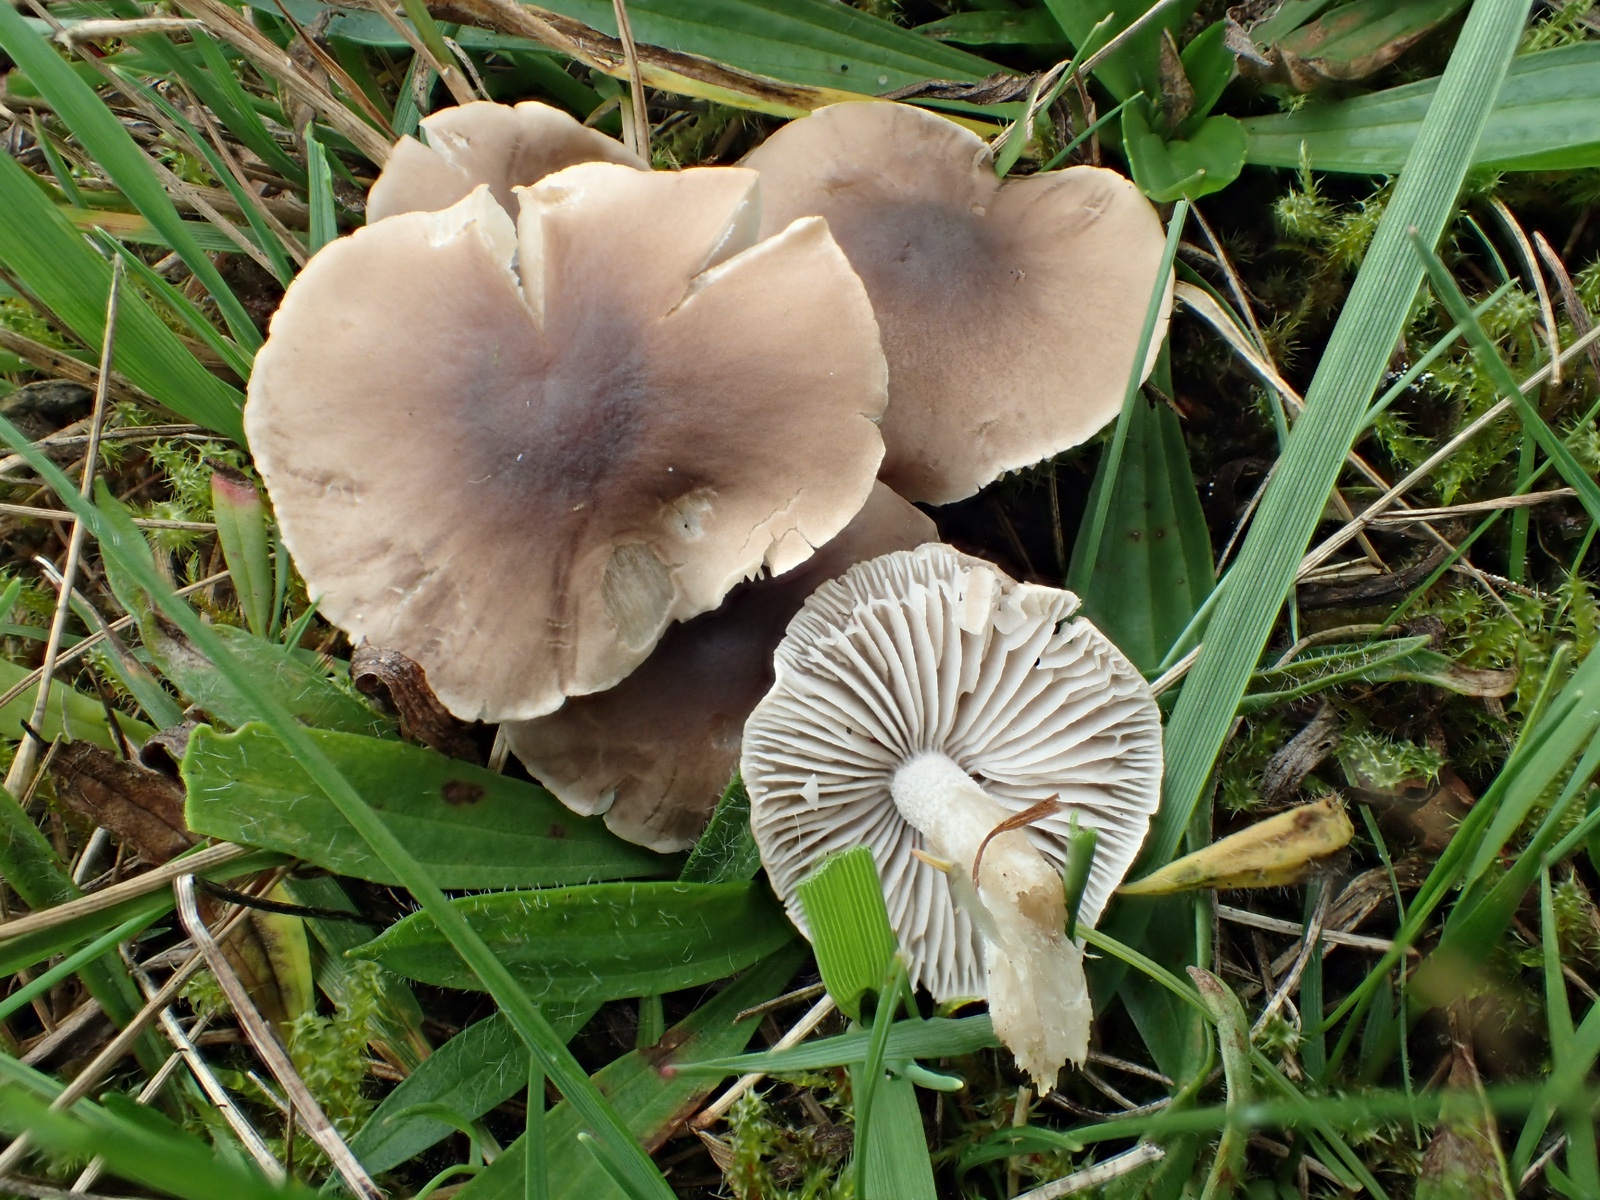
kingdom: Fungi
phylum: Basidiomycota
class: Agaricomycetes
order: Agaricales
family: Tricholomataceae
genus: Dermoloma
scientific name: Dermoloma cuneifolium
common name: eng-nonnehat
